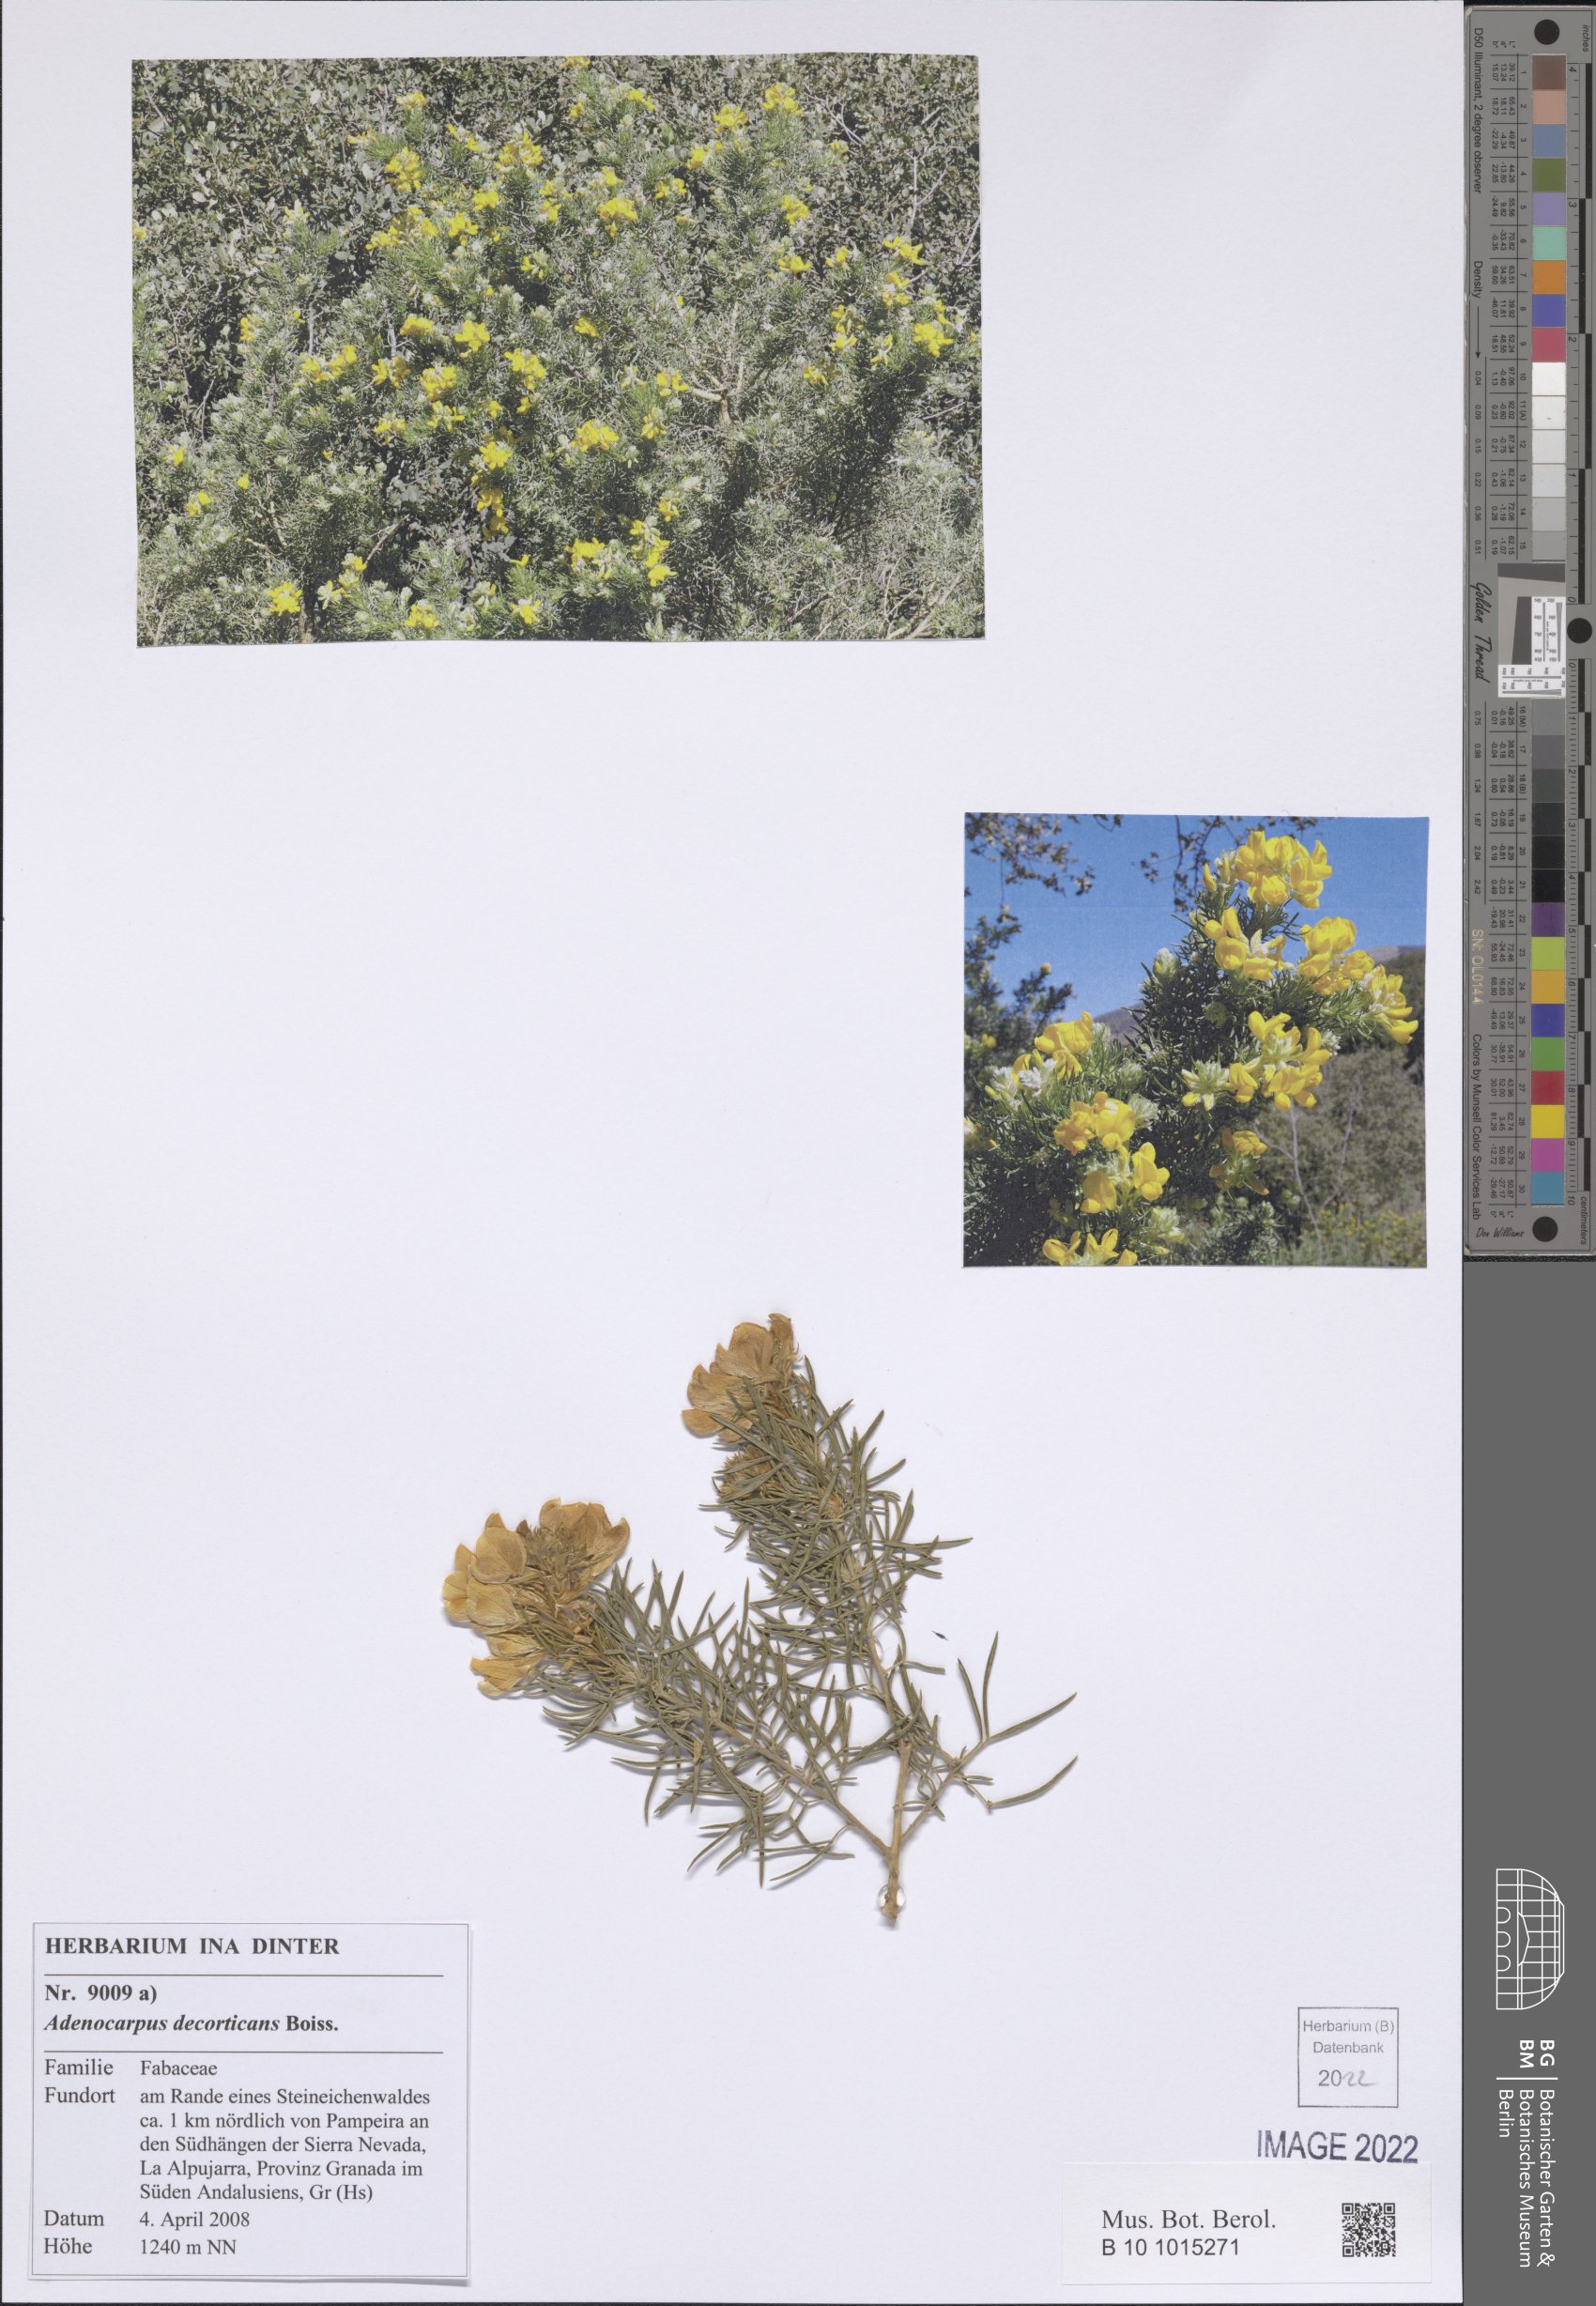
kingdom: Plantae
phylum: Tracheophyta
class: Magnoliopsida
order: Fabales
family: Fabaceae
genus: Adenocarpus
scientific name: Adenocarpus decorticans
